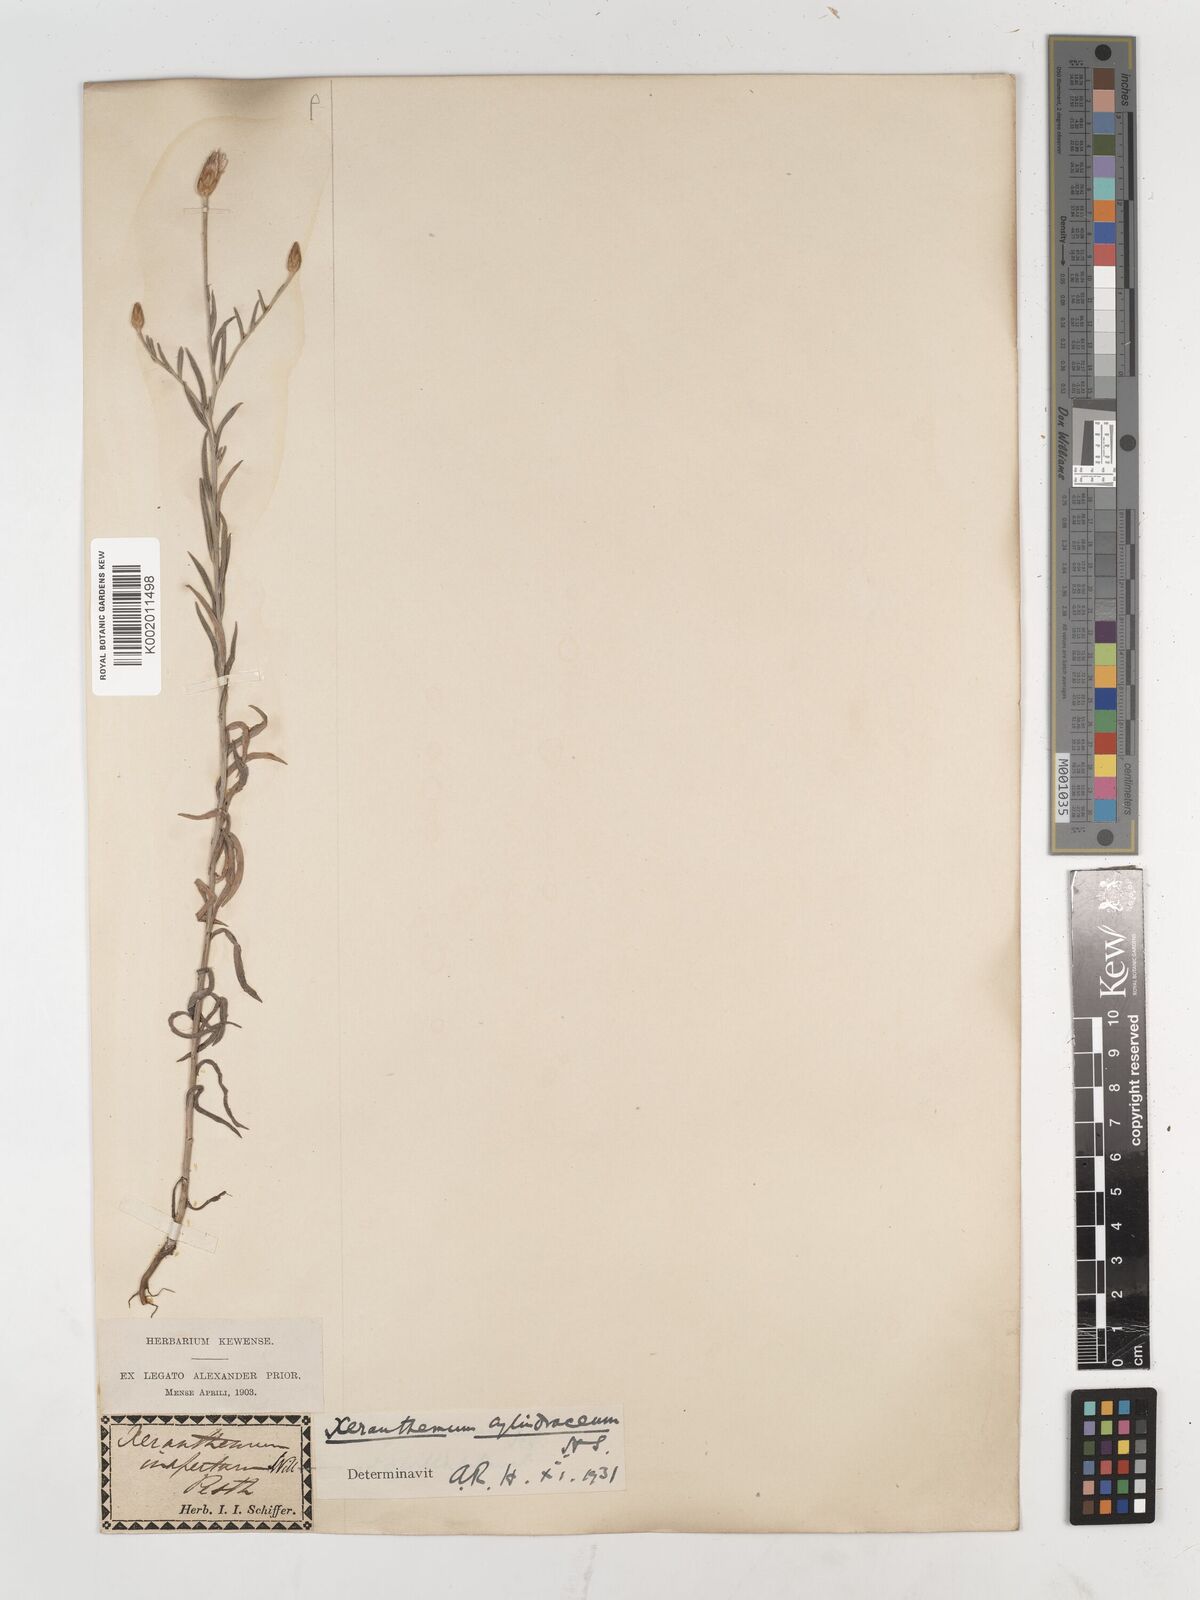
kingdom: Plantae
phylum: Tracheophyta
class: Magnoliopsida
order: Asterales
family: Asteraceae
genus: Xeranthemum
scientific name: Xeranthemum cylindraceum
